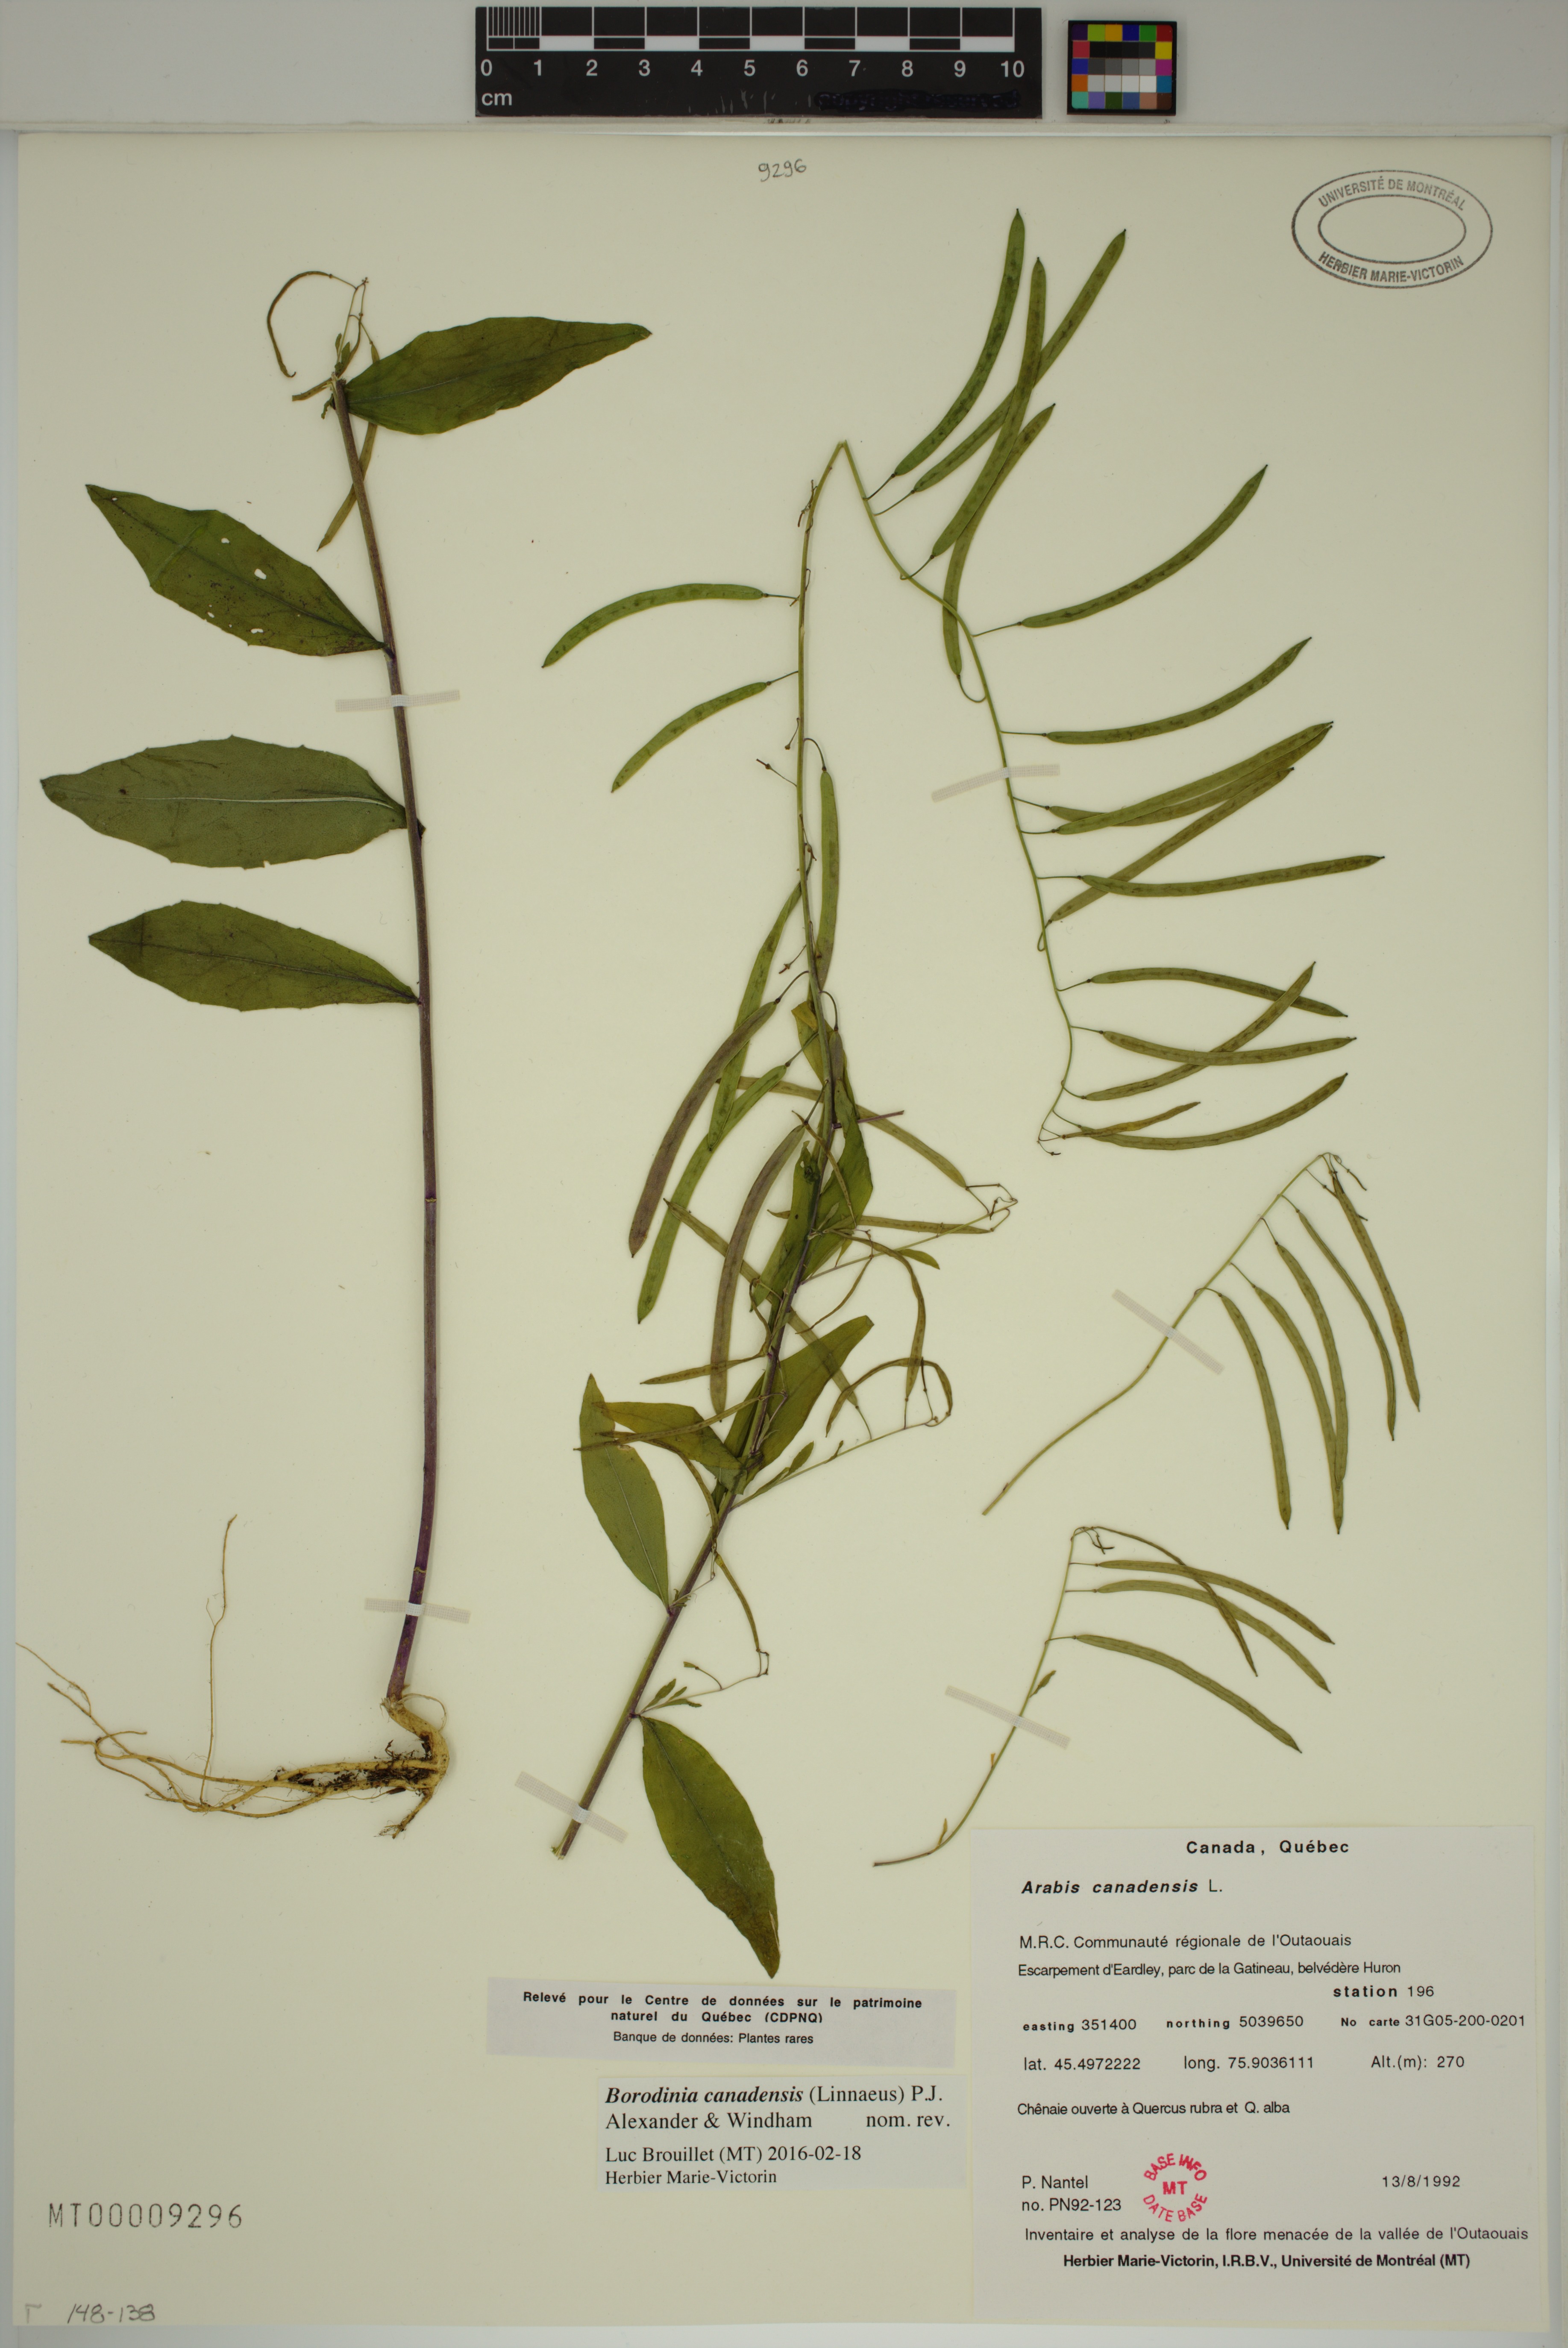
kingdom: Plantae
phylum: Tracheophyta
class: Magnoliopsida
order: Brassicales
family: Brassicaceae
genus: Borodinia
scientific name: Borodinia canadensis
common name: Sicklepod
